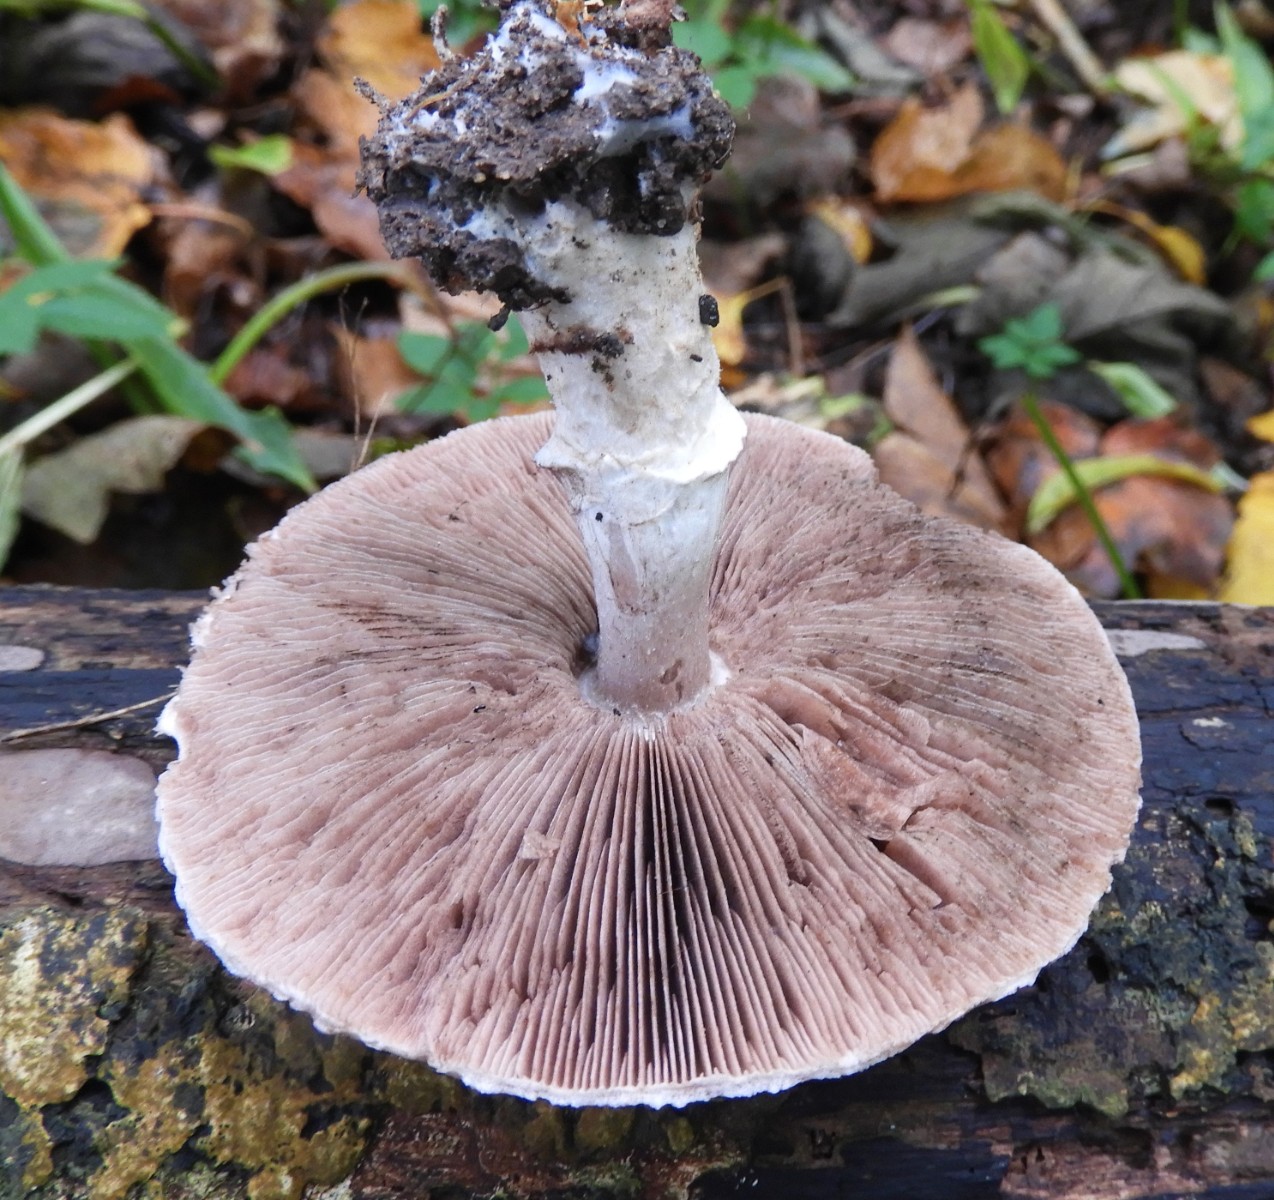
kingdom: Fungi
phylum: Basidiomycota
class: Agaricomycetes
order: Agaricales
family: Agaricaceae
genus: Agaricus
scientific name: Agaricus impudicus
